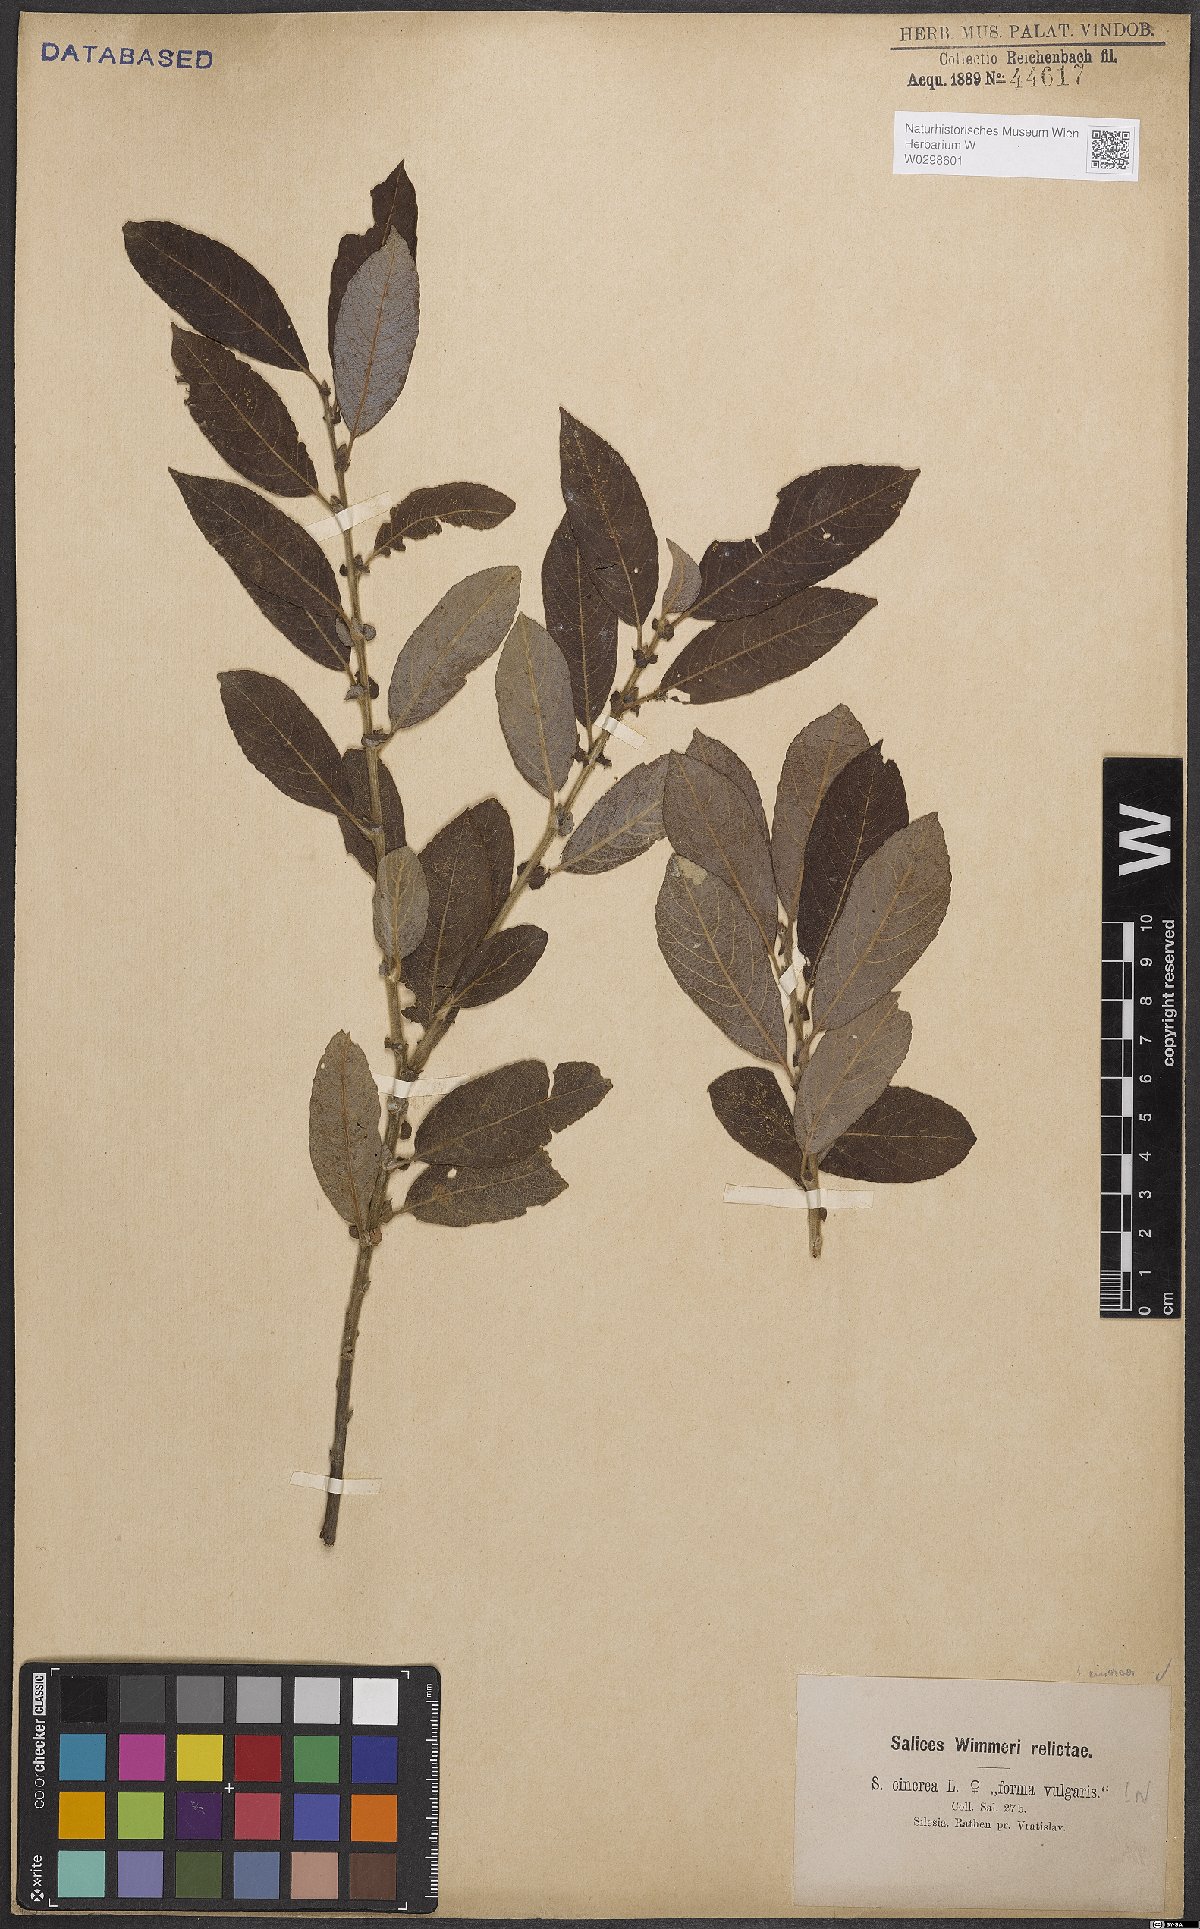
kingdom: Plantae
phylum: Tracheophyta
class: Magnoliopsida
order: Malpighiales
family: Salicaceae
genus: Salix
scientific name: Salix cinerea
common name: Common sallow
